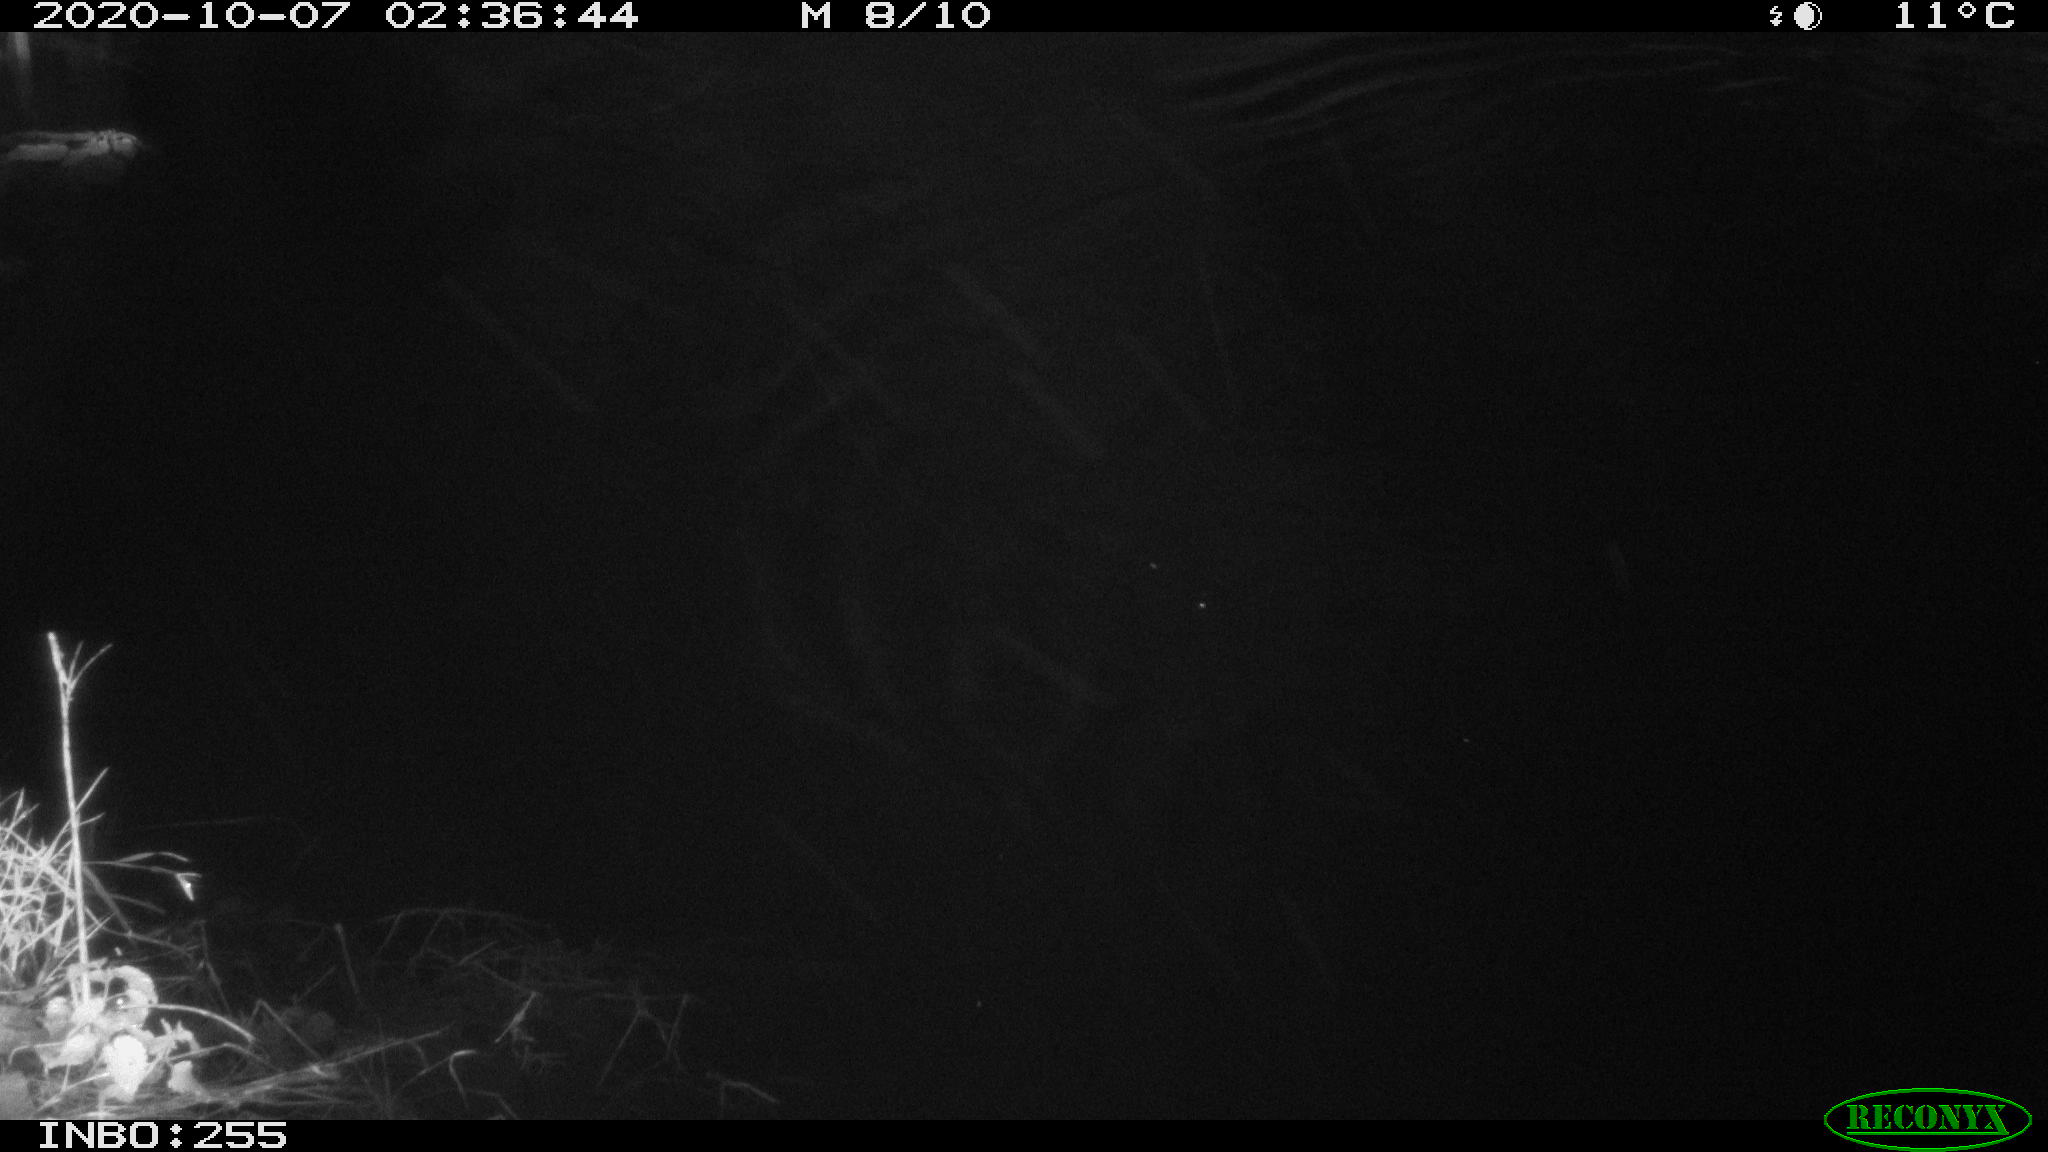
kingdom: Animalia
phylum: Chordata
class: Mammalia
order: Rodentia
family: Muridae
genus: Rattus
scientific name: Rattus norvegicus
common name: Brown rat
